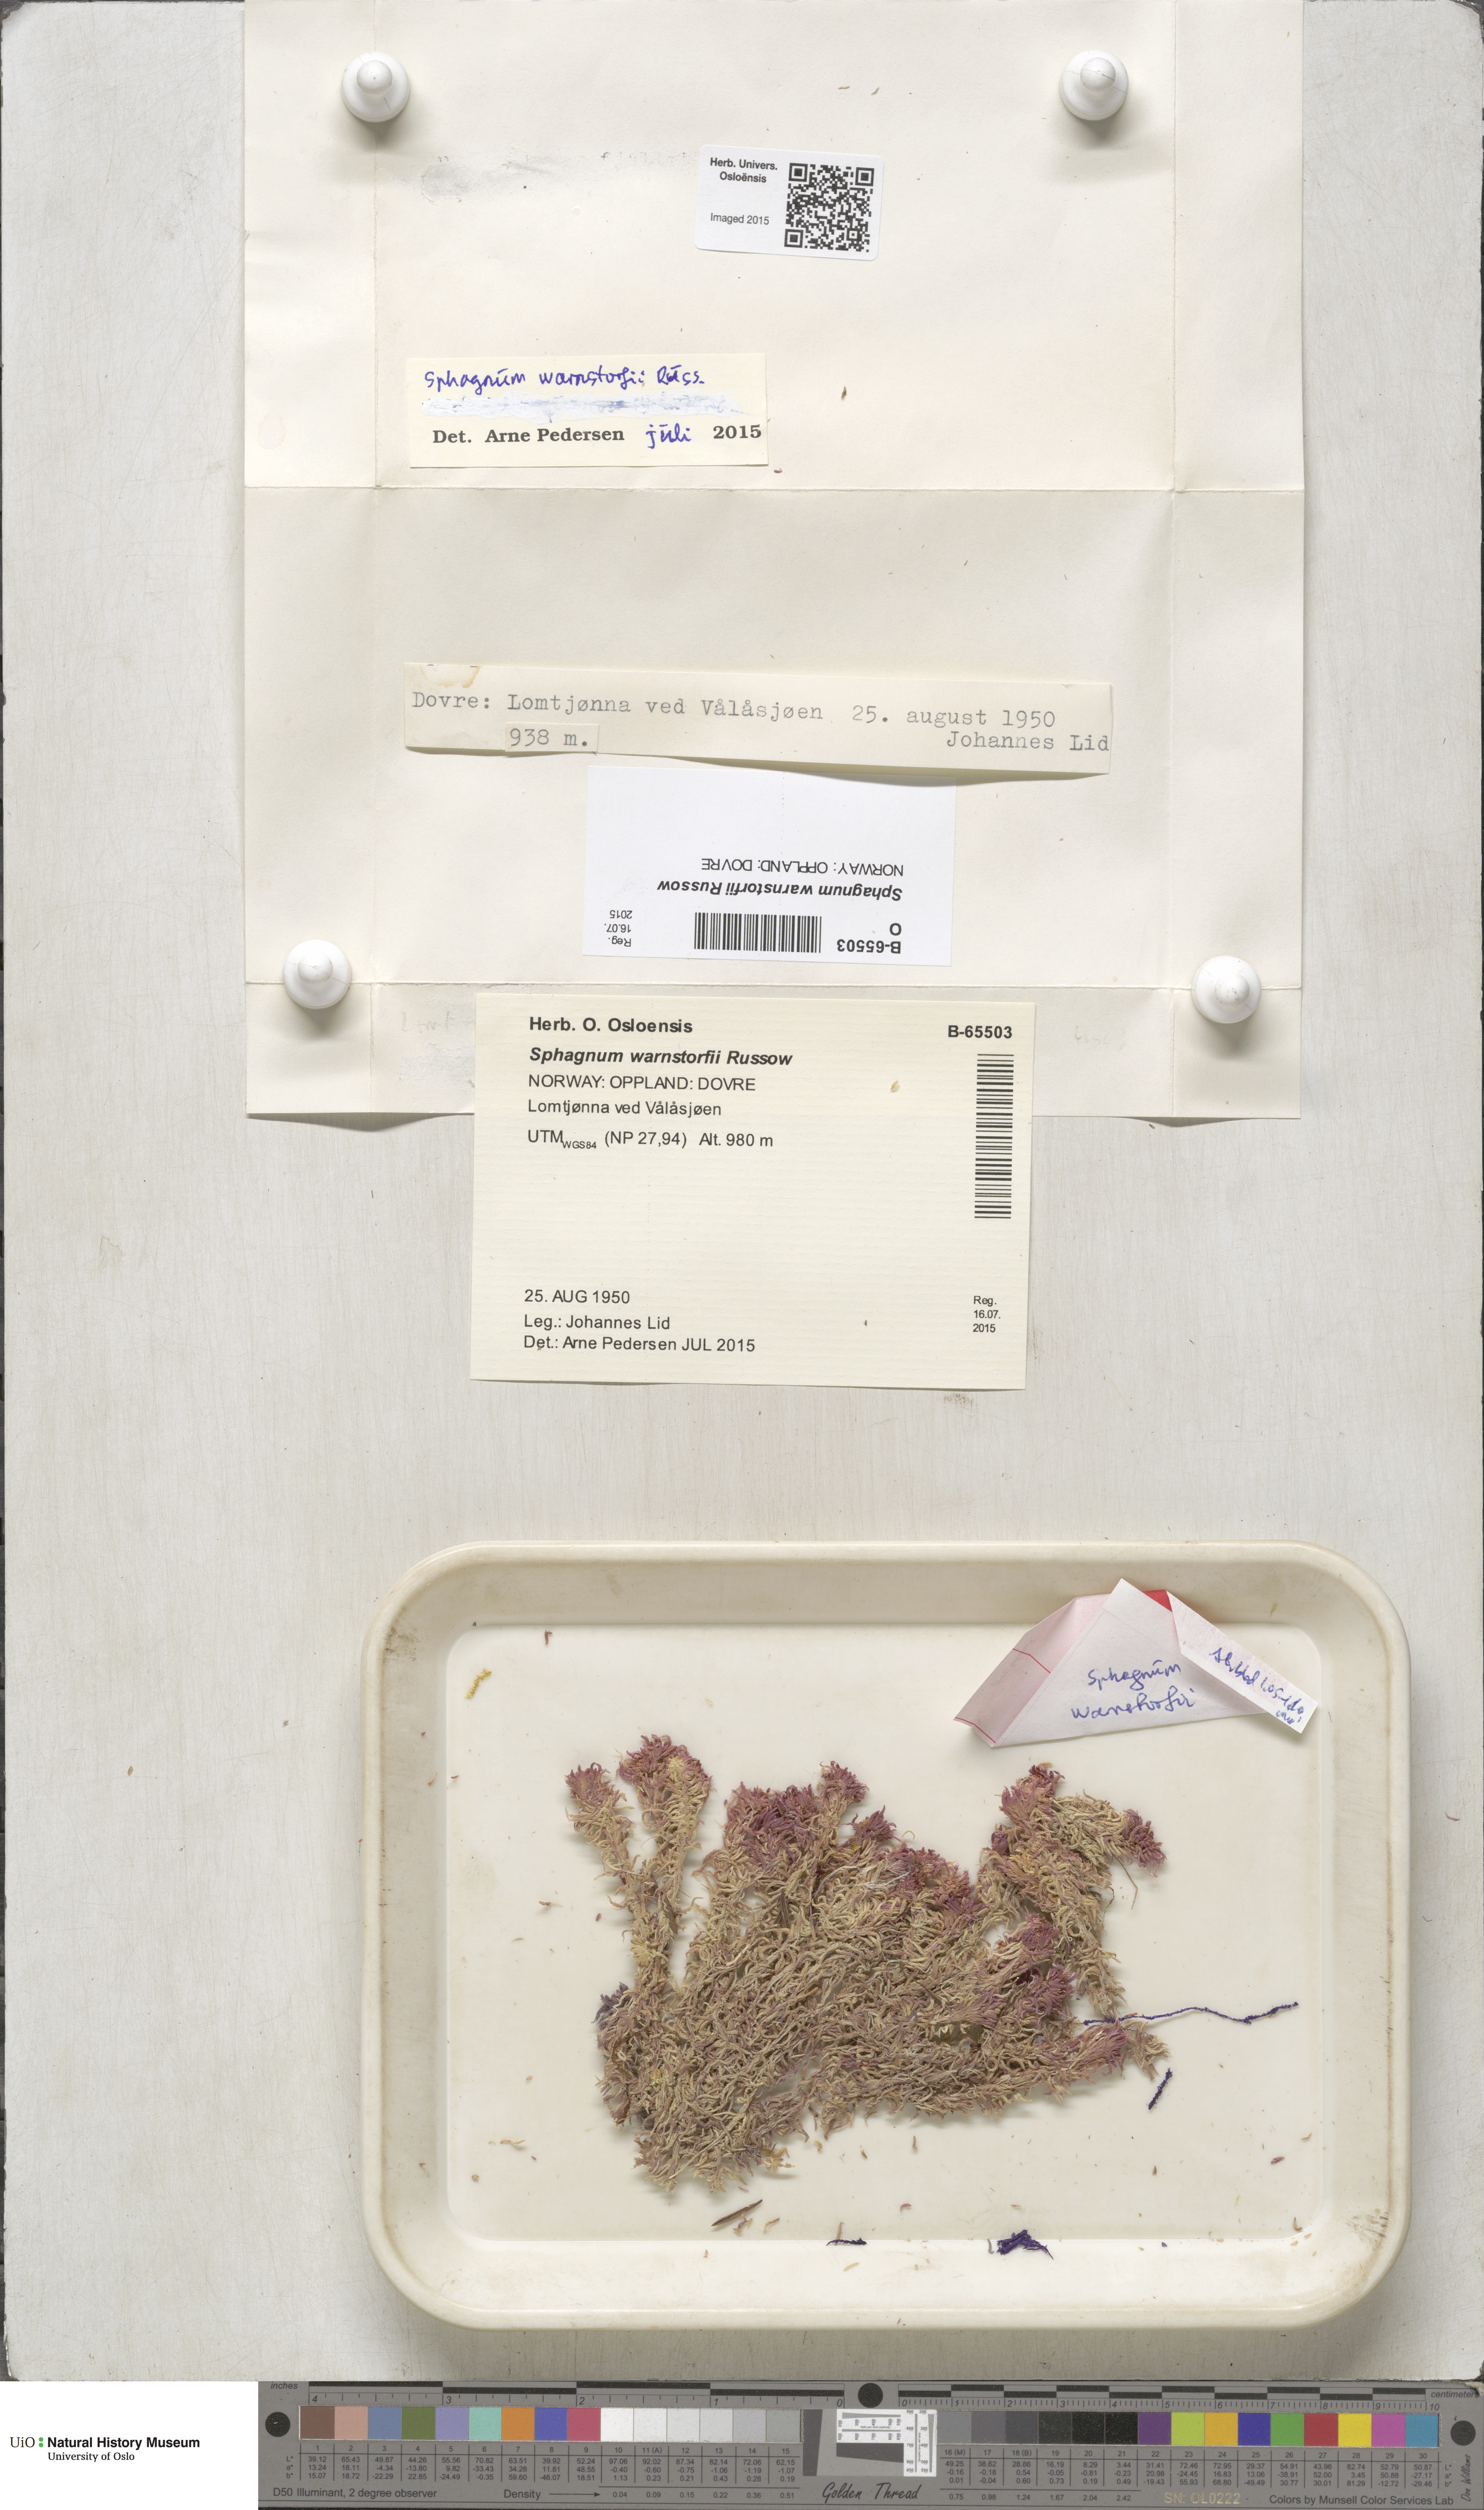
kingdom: Plantae
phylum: Bryophyta
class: Sphagnopsida
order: Sphagnales
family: Sphagnaceae
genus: Sphagnum
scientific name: Sphagnum warnstorfii
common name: Warnstorf's peat moss
